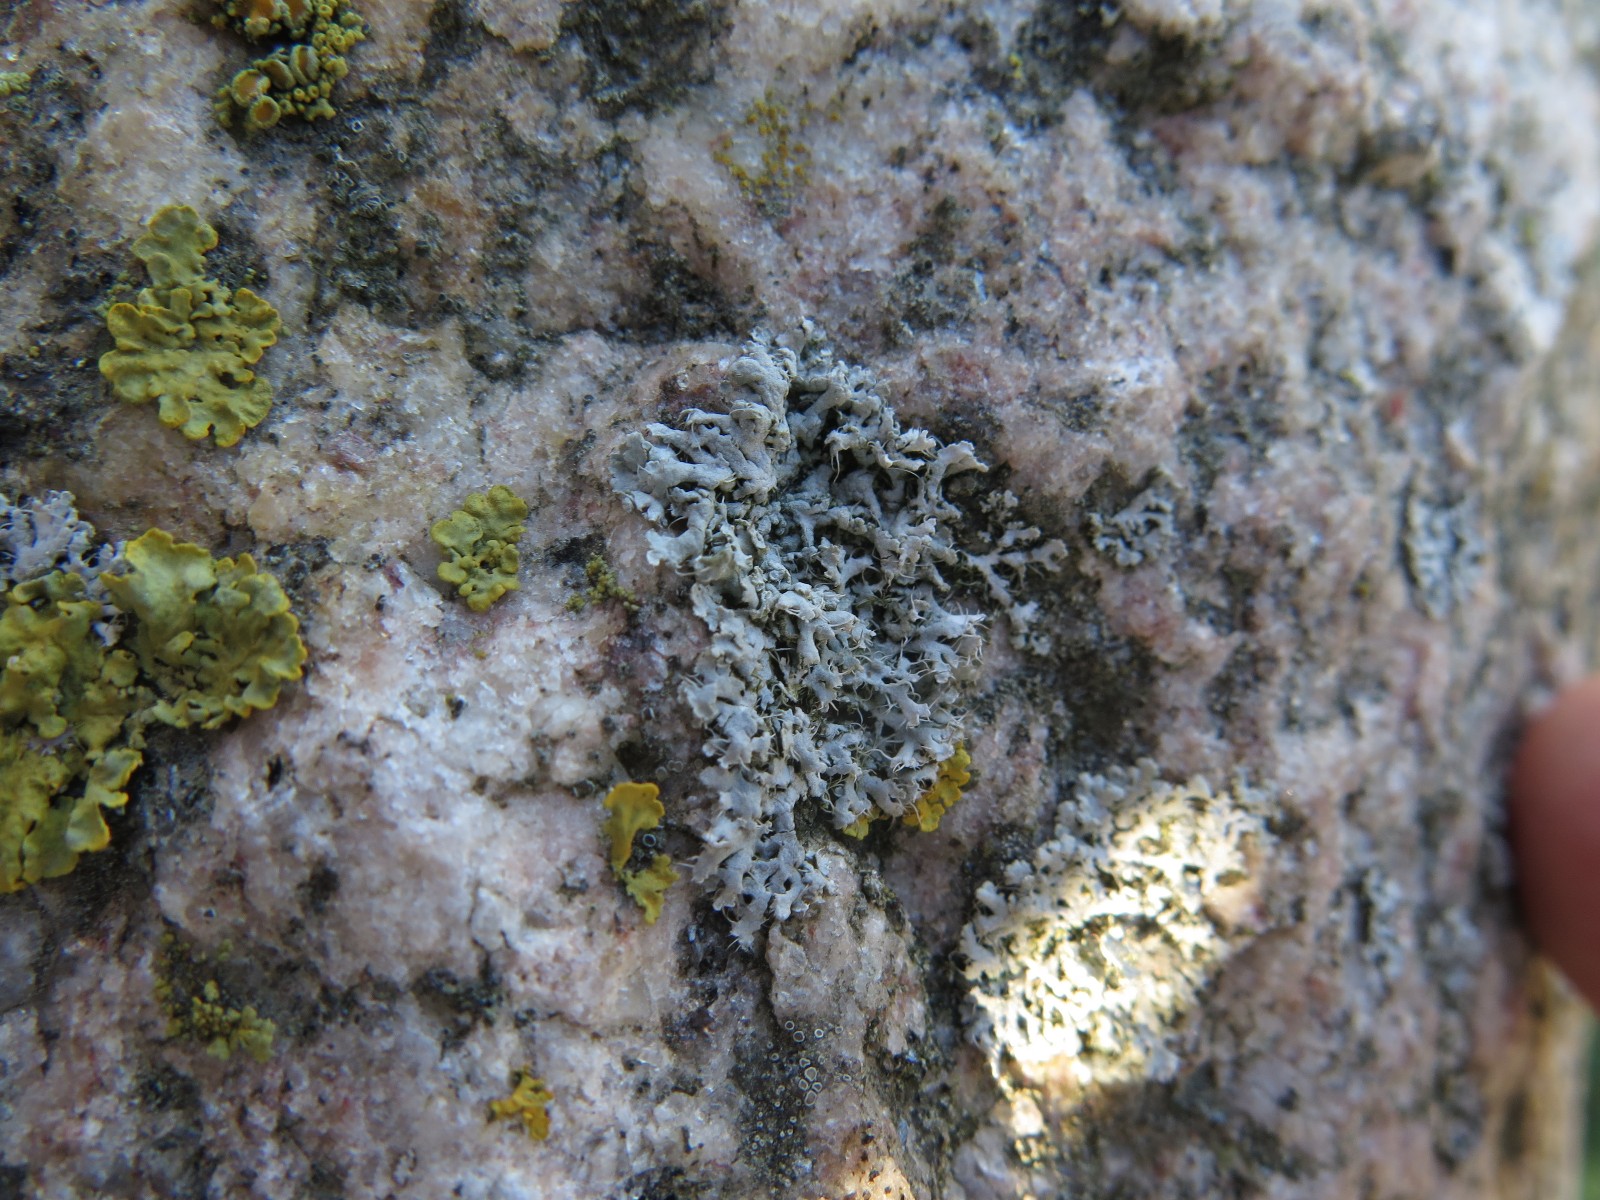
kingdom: Fungi
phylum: Ascomycota
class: Lecanoromycetes
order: Caliciales
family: Physciaceae
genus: Physcia
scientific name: Physcia adscendens
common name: hætte-rosetlav
